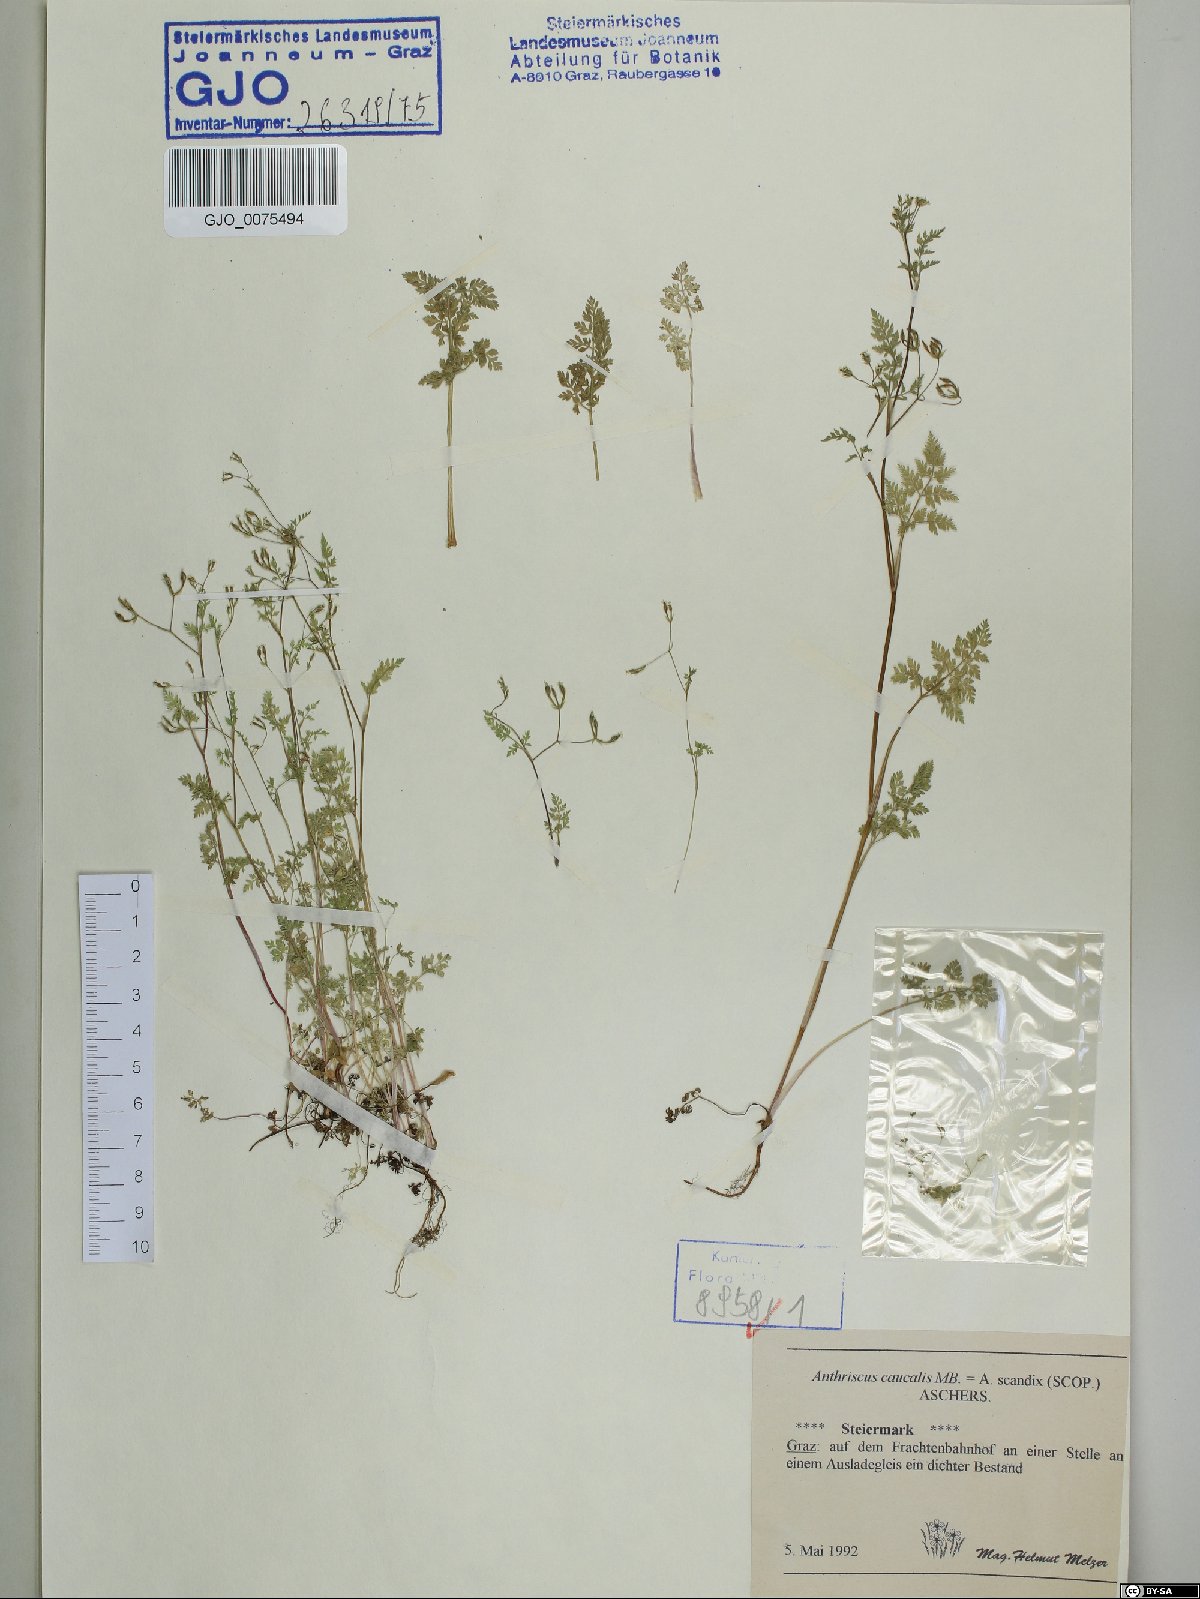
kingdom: Plantae
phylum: Tracheophyta
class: Magnoliopsida
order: Apiales
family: Apiaceae
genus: Anthriscus
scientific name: Anthriscus caucalis
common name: Bur chervil
